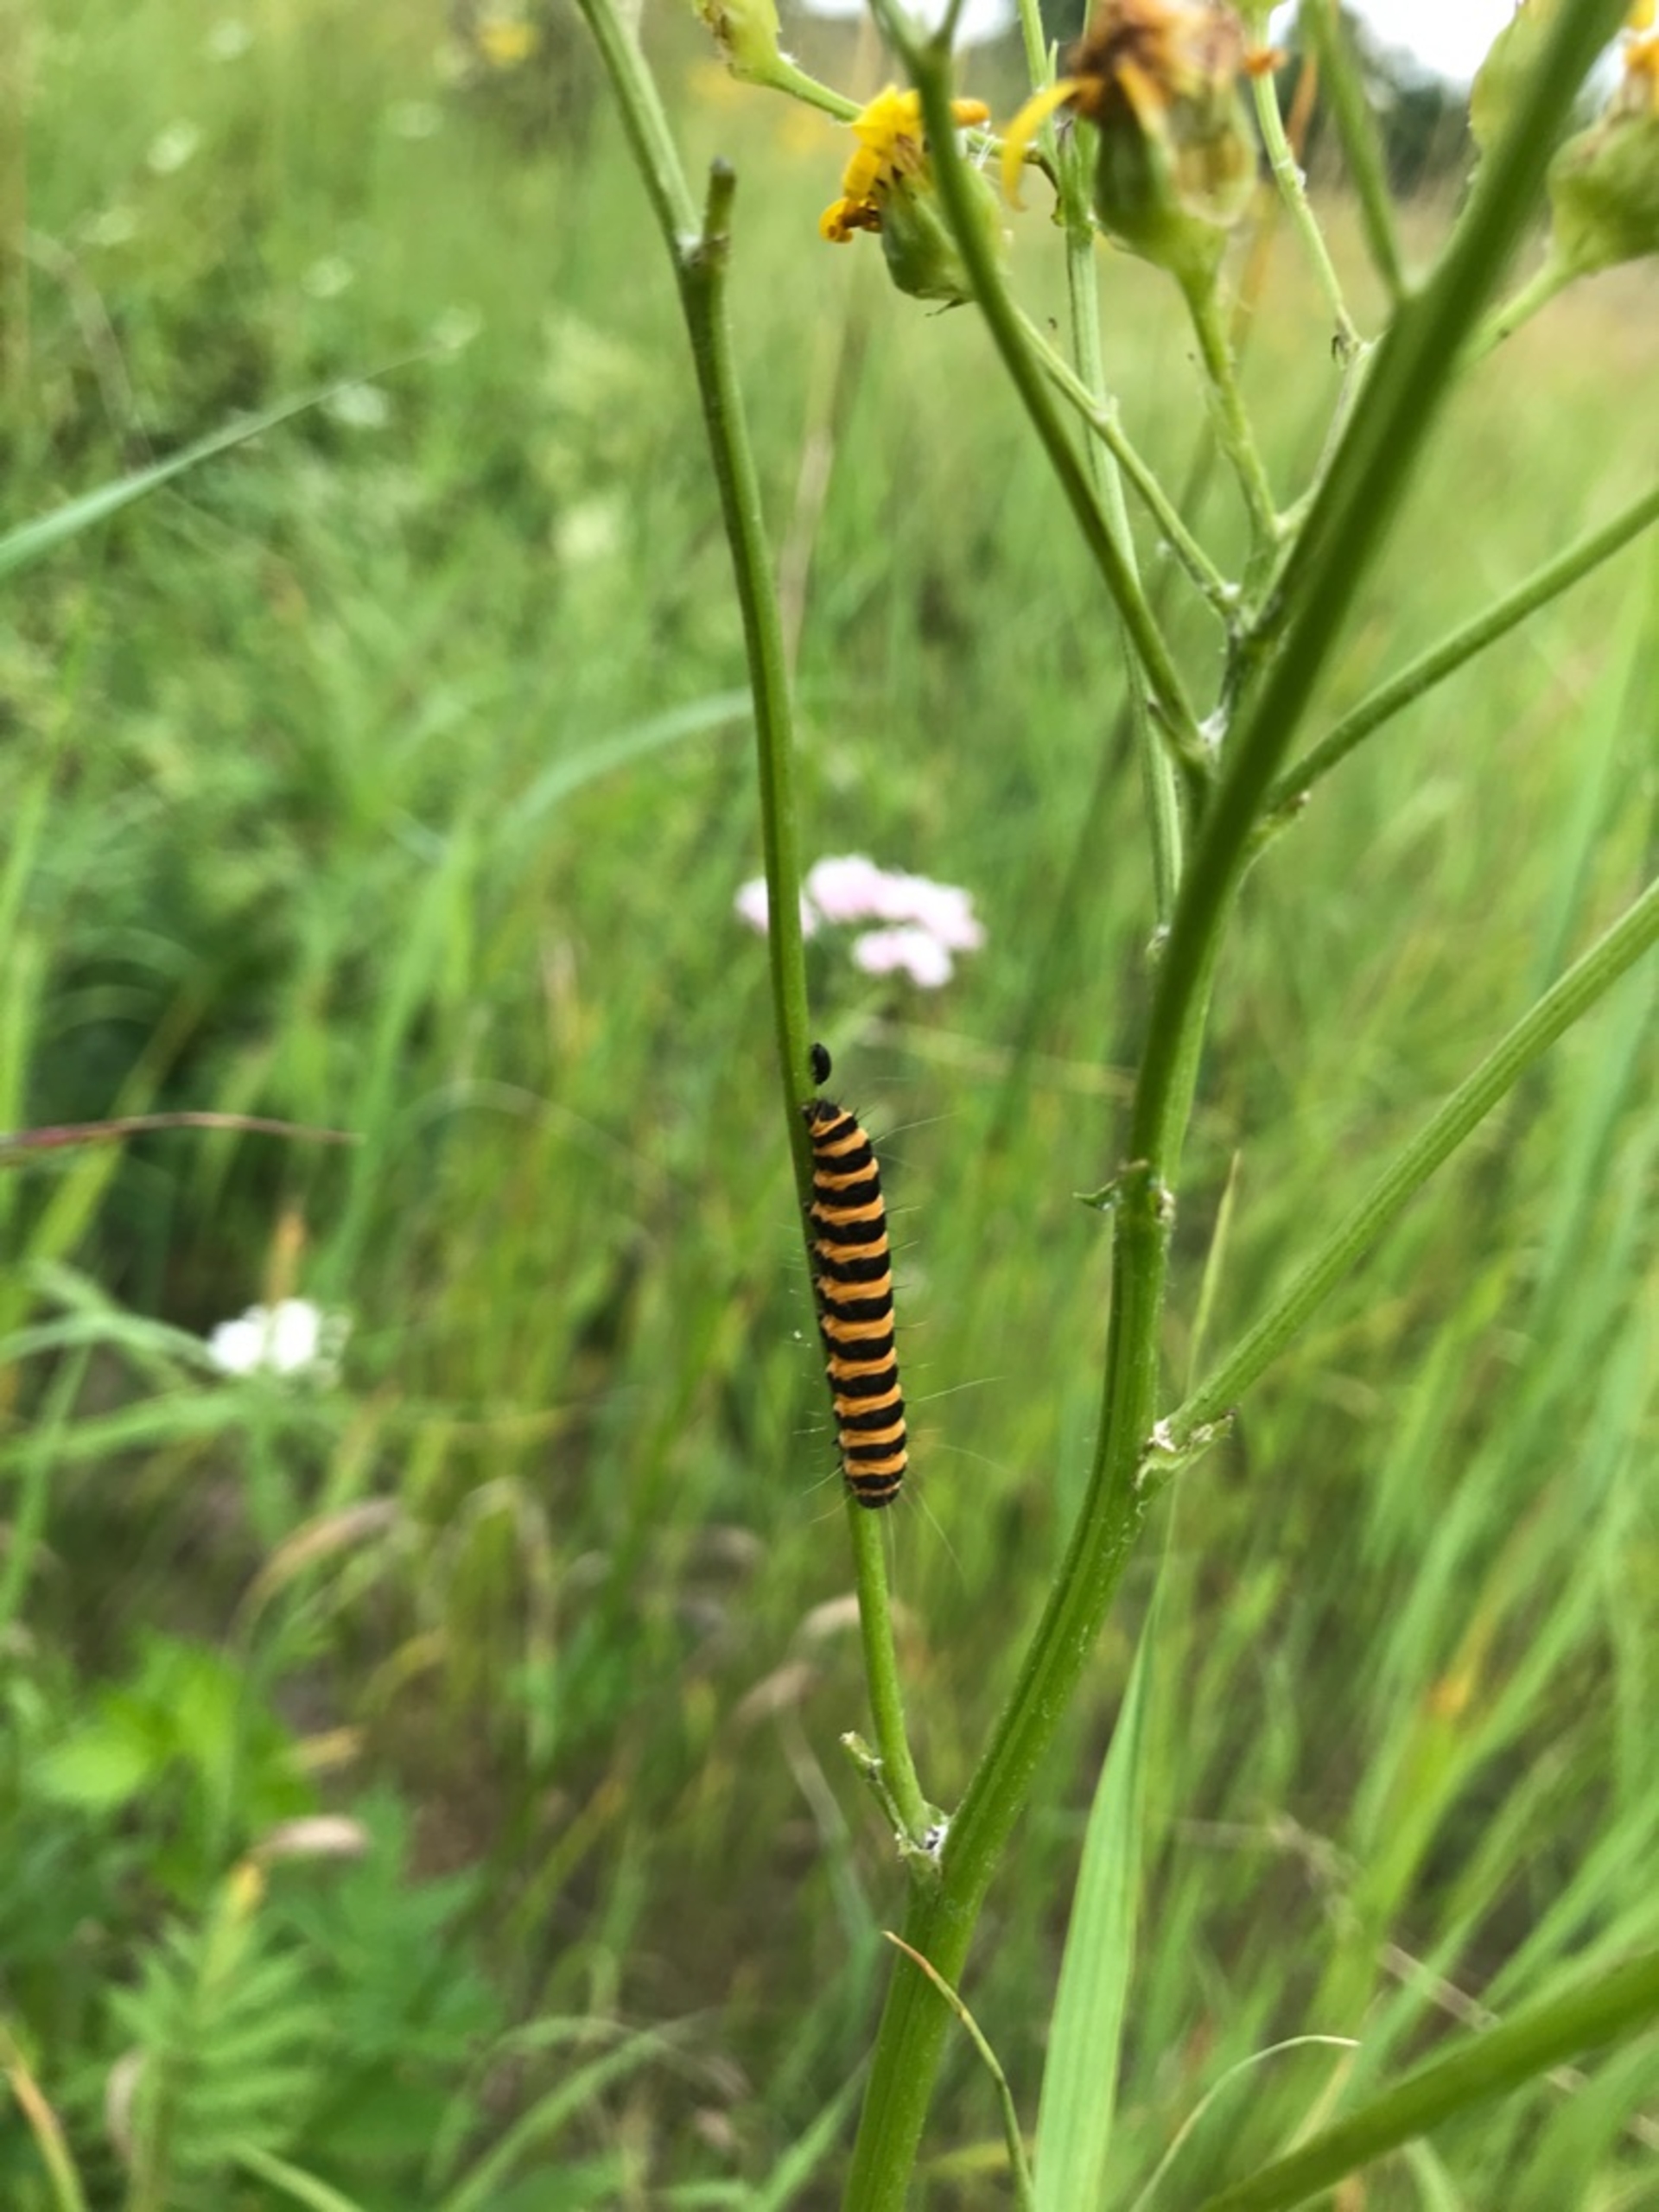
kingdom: Animalia
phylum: Arthropoda
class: Insecta
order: Lepidoptera
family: Erebidae
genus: Tyria
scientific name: Tyria jacobaeae
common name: Blodplet
